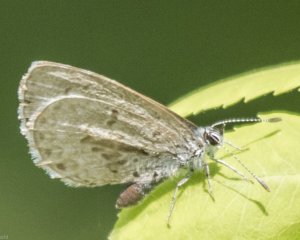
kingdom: Animalia
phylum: Arthropoda
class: Insecta
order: Lepidoptera
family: Lycaenidae
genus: Celastrina
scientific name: Celastrina
